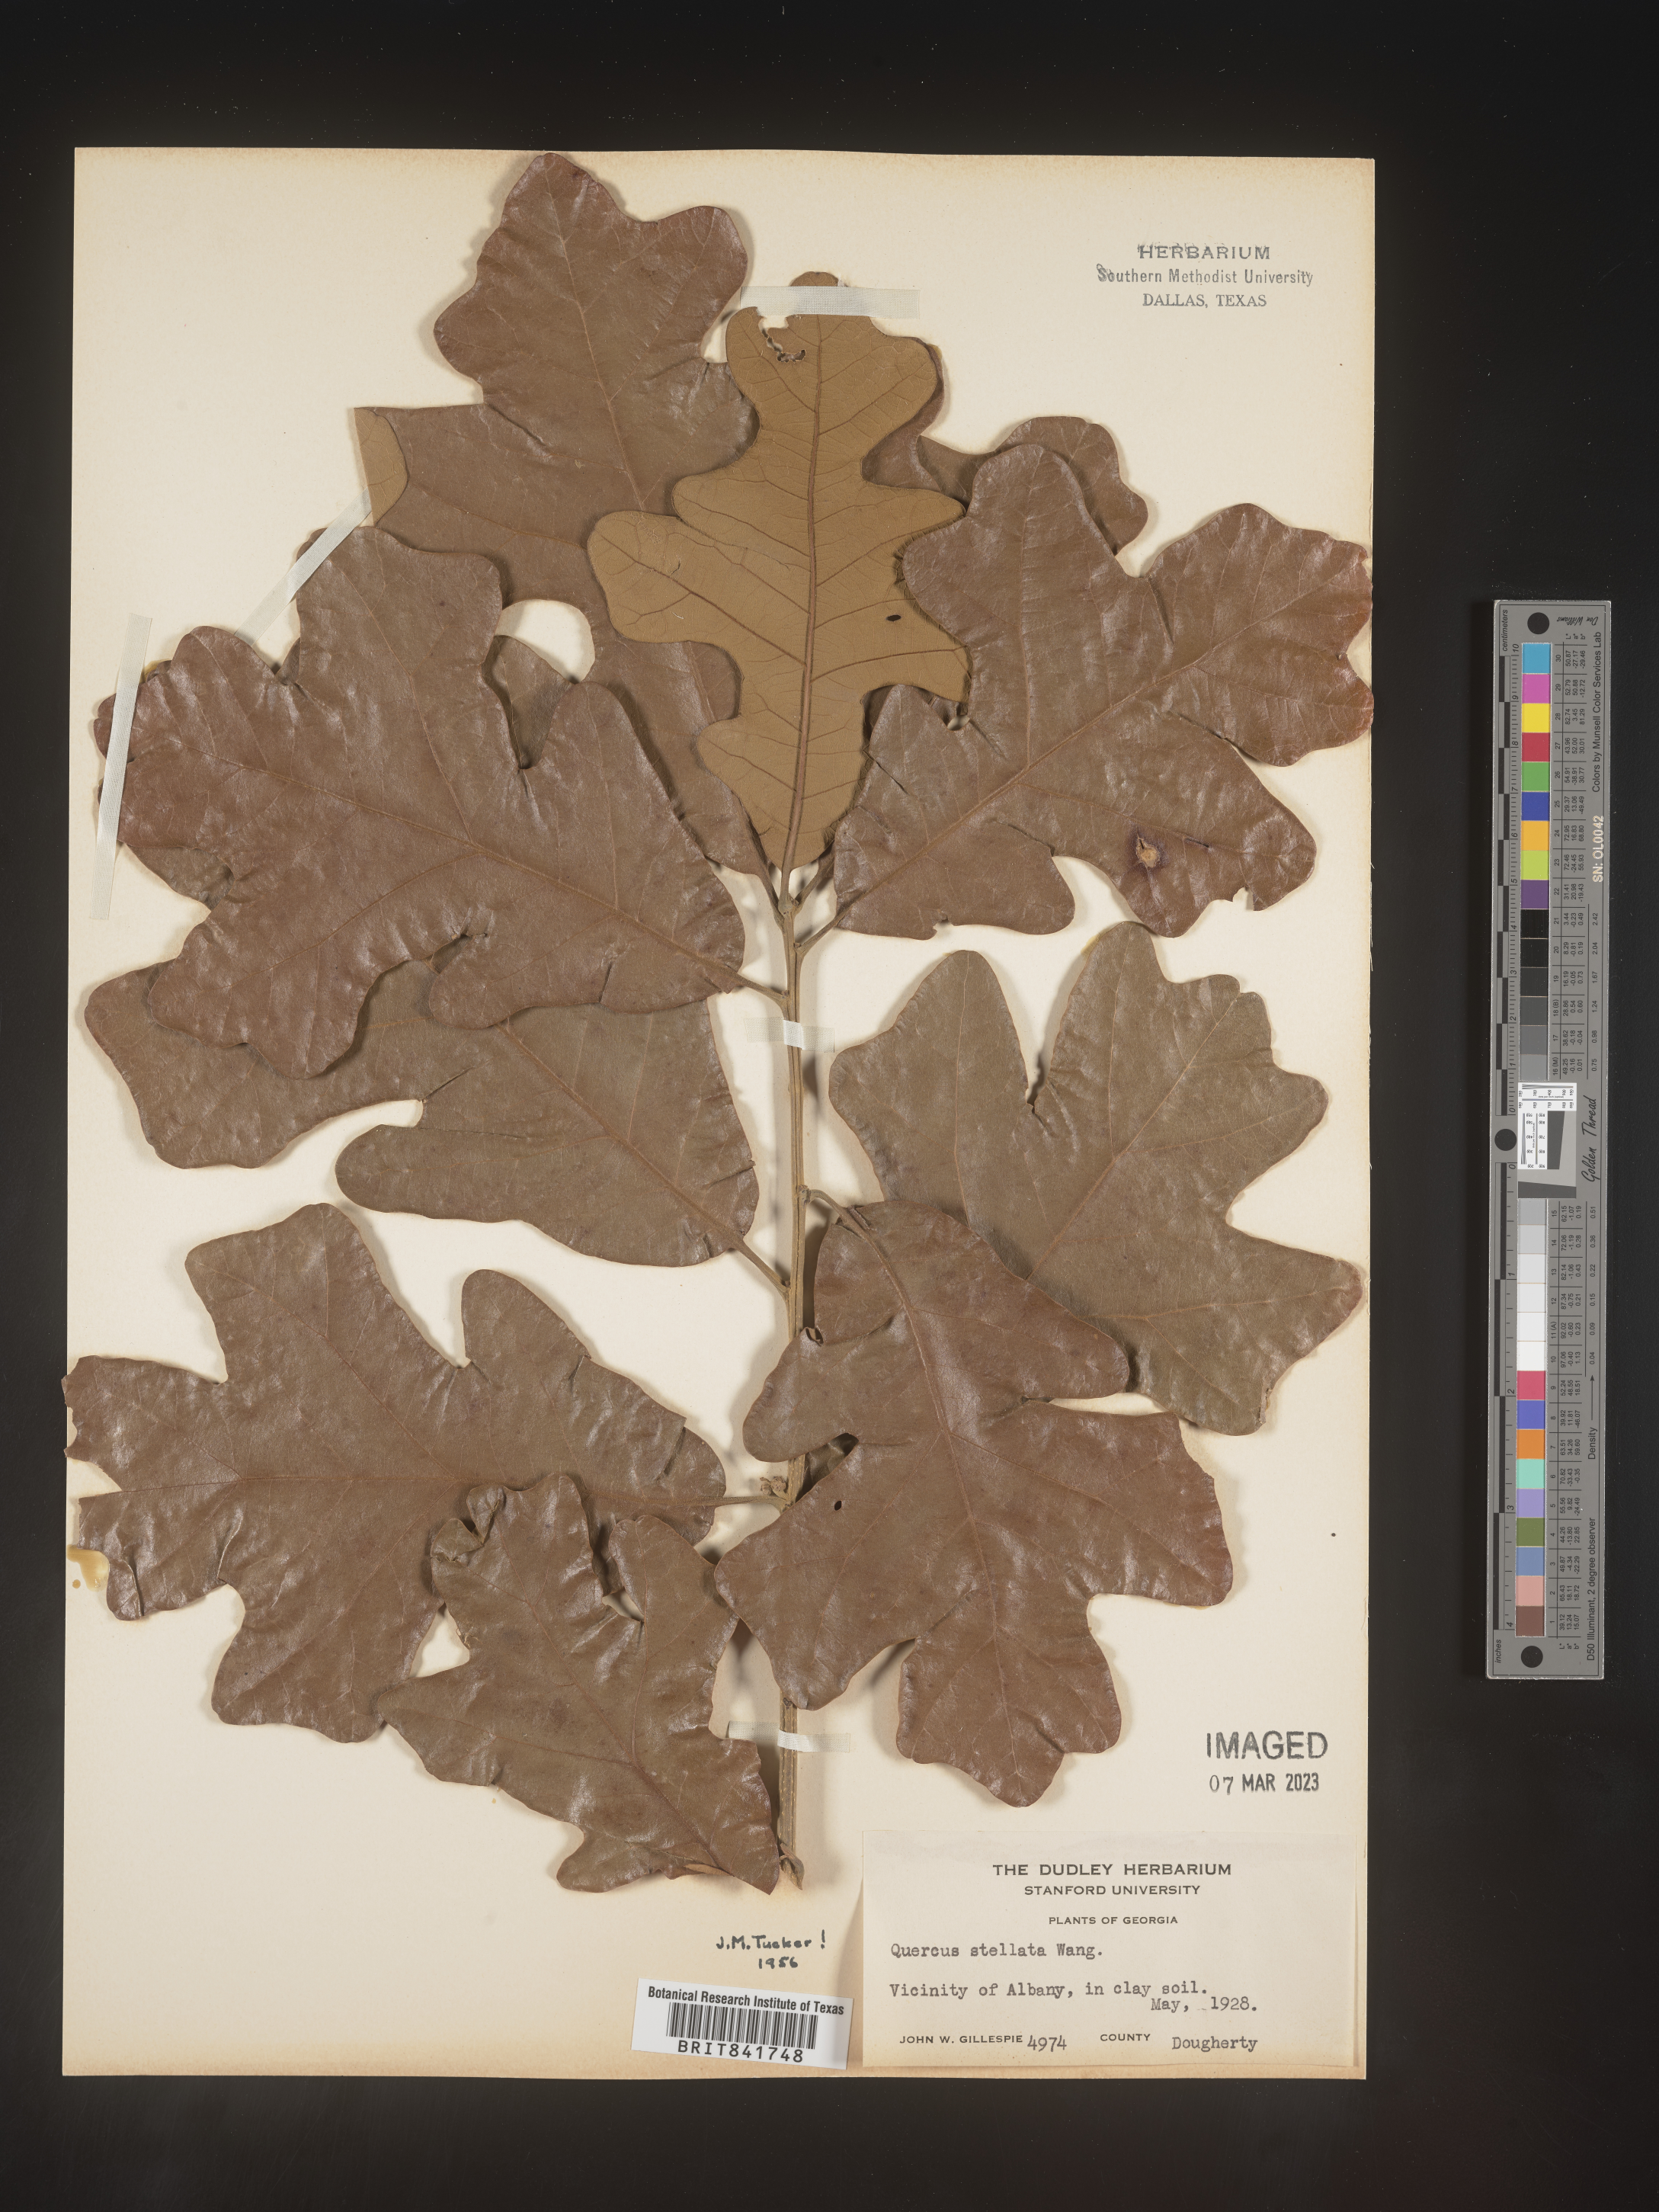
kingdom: Plantae
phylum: Tracheophyta
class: Magnoliopsida
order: Fagales
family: Fagaceae
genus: Quercus
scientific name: Quercus stellata
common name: Post oak
